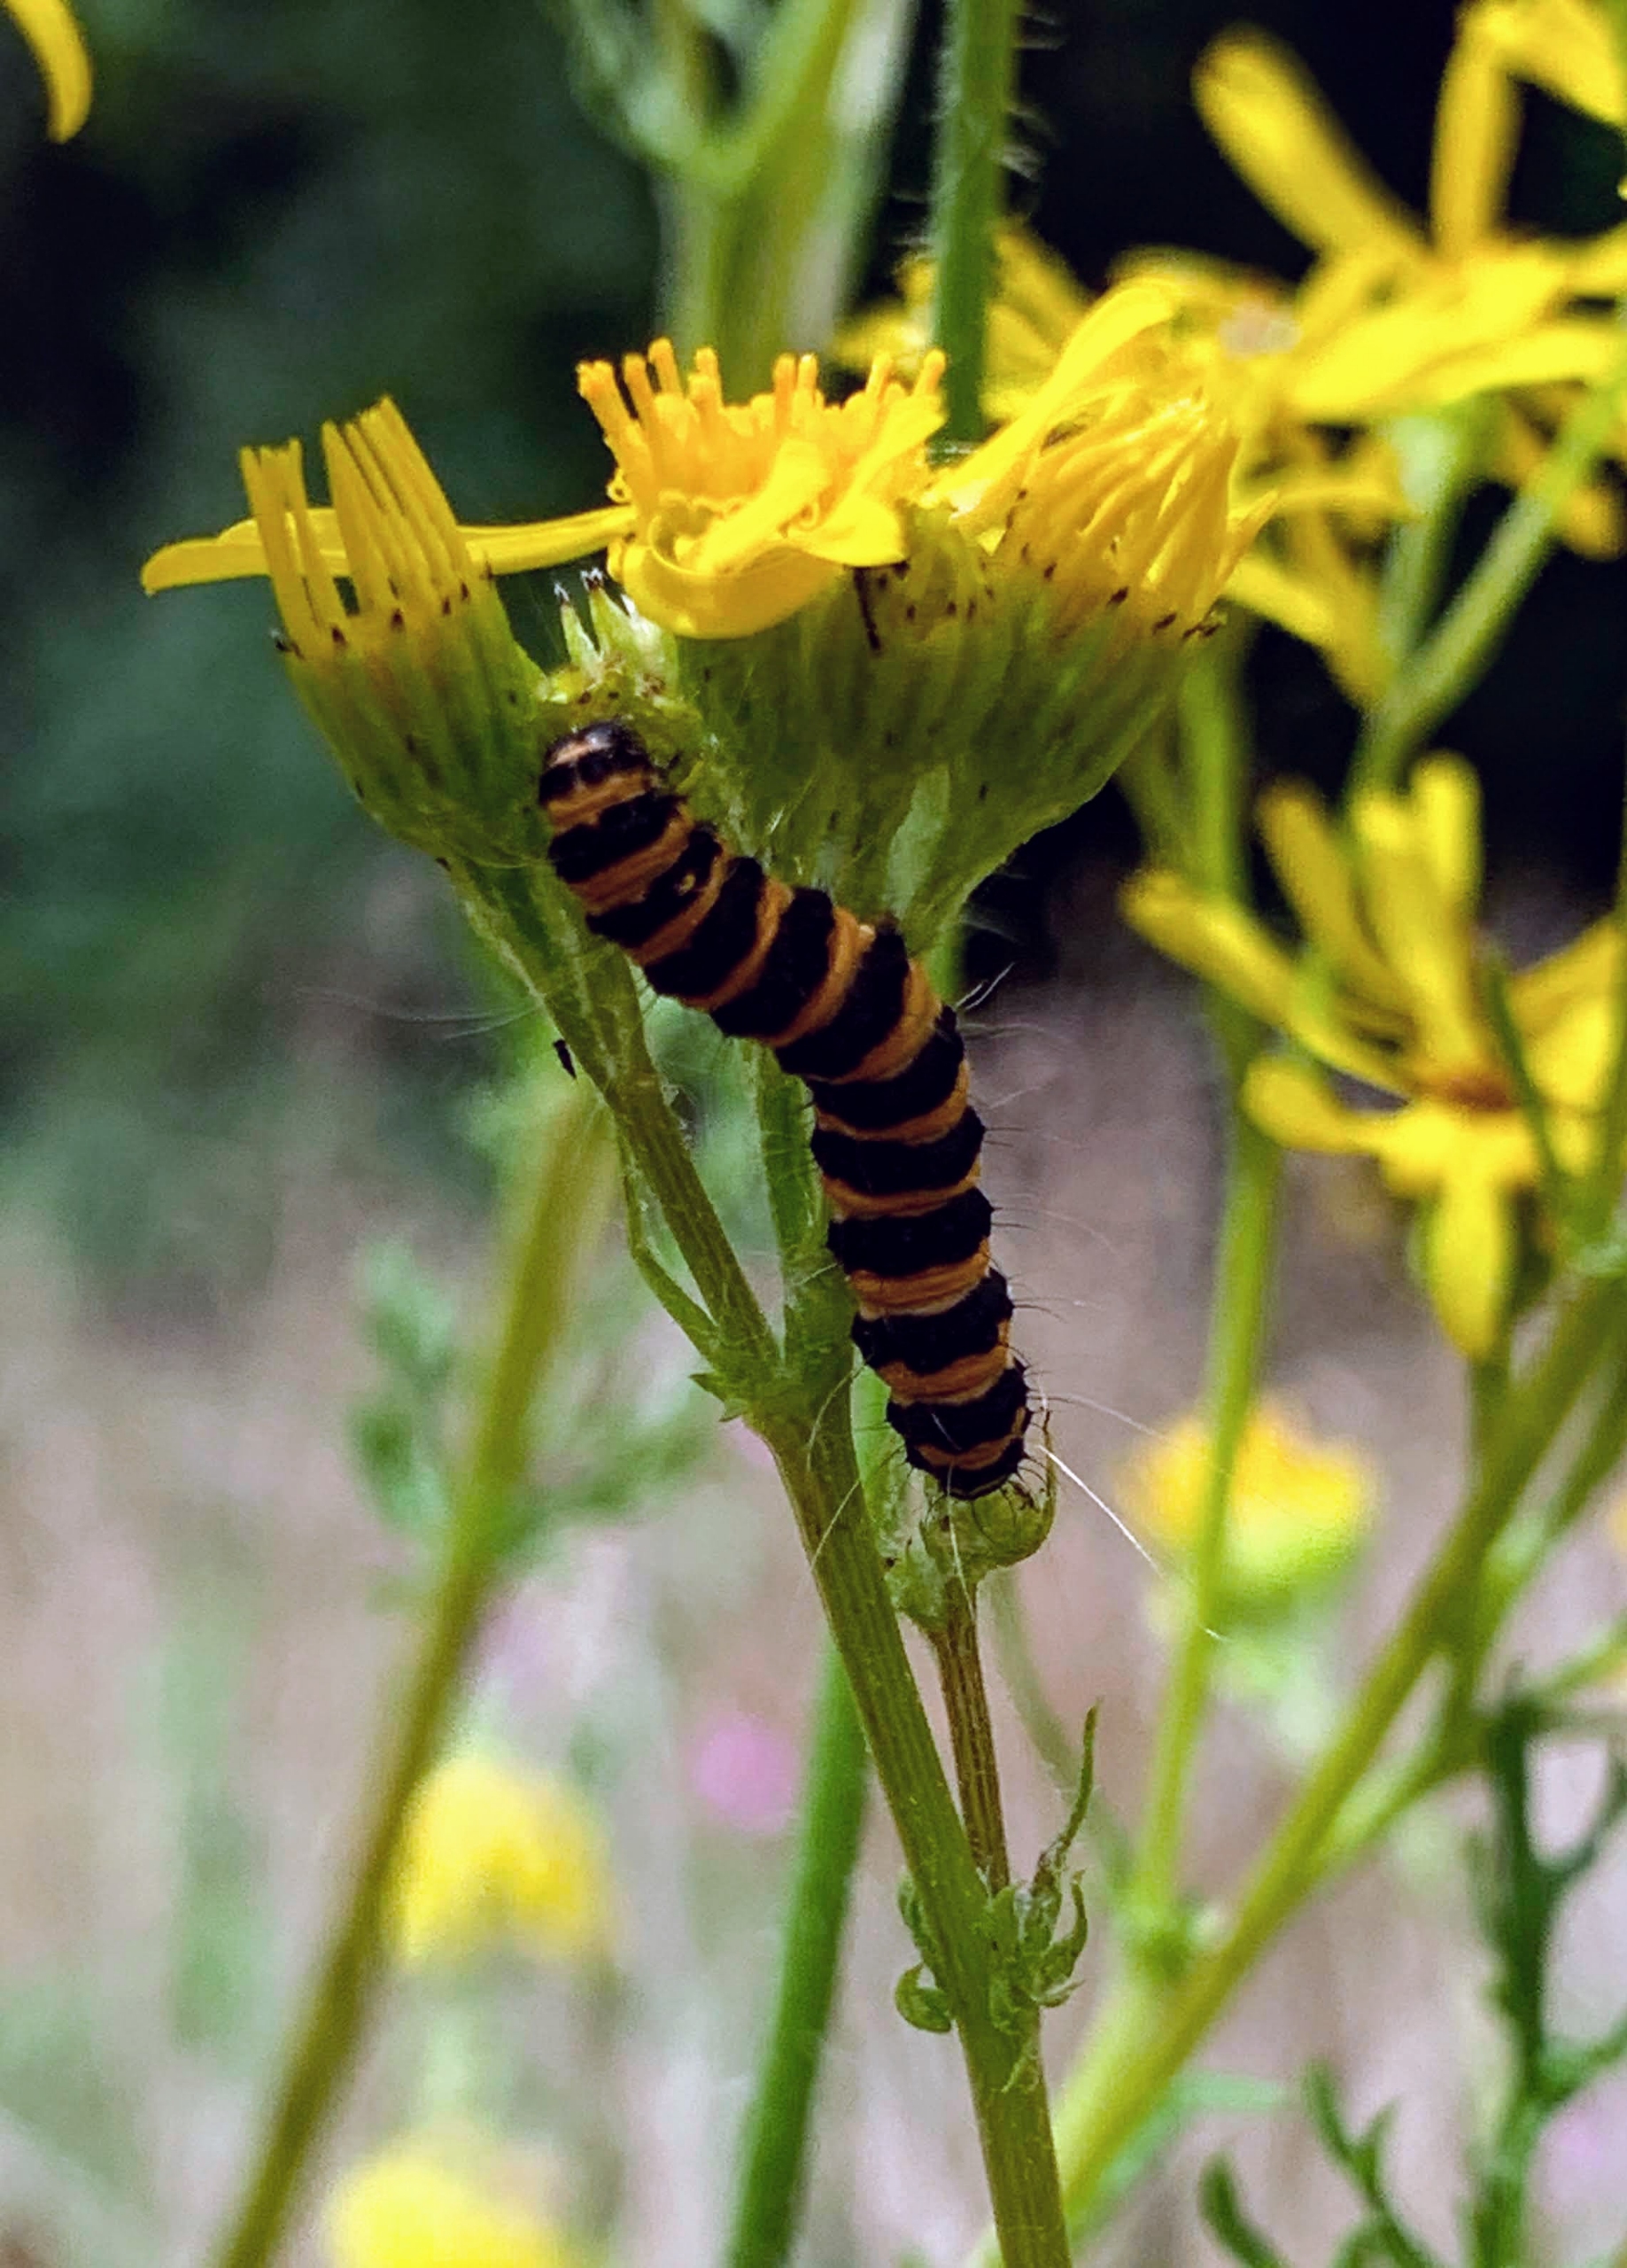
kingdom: Animalia
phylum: Arthropoda
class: Insecta
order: Lepidoptera
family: Erebidae
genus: Tyria
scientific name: Tyria jacobaeae
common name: Blodplet
